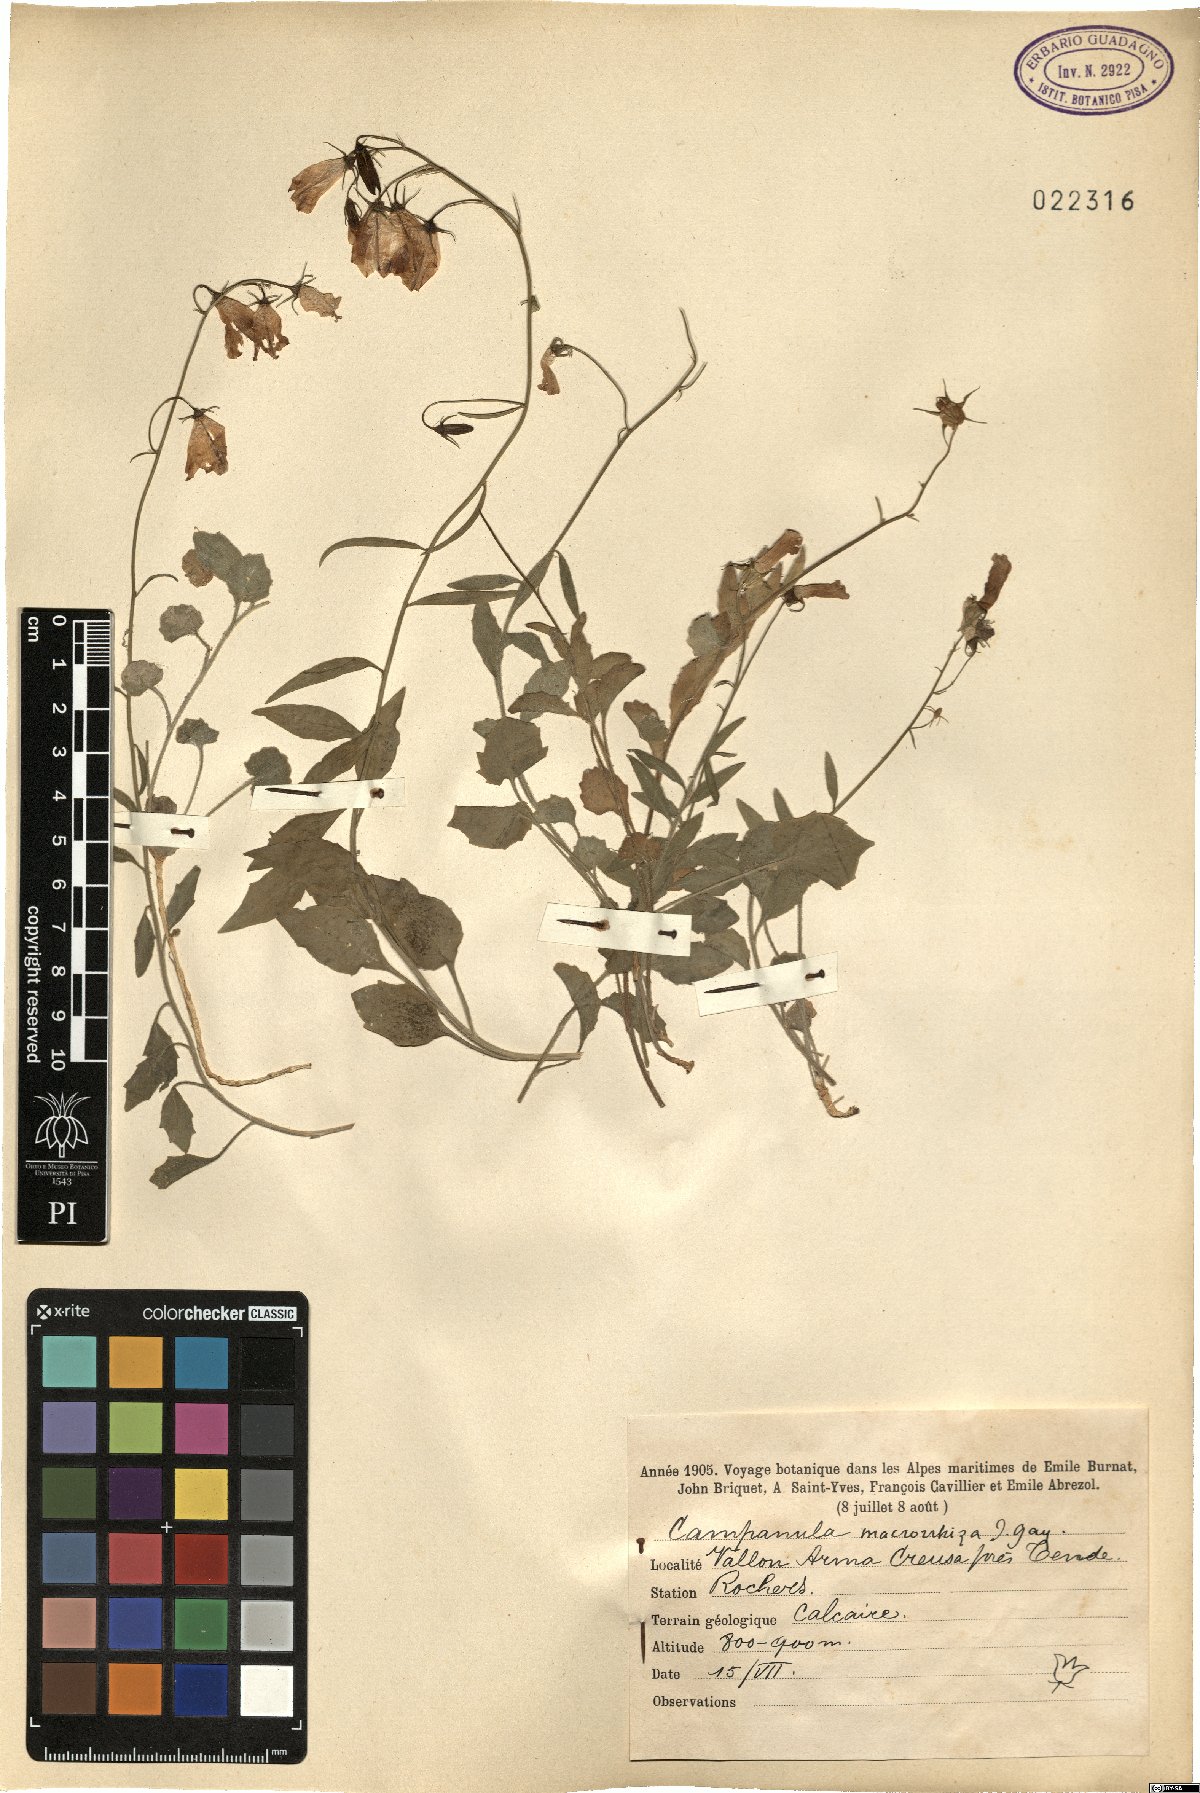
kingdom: Plantae
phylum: Tracheophyta
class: Magnoliopsida
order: Asterales
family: Campanulaceae
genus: Campanula
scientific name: Campanula macrorhiza
